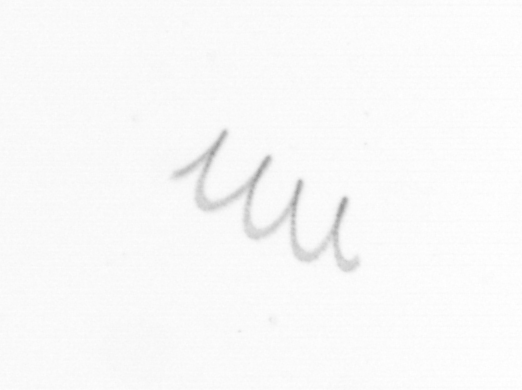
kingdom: Chromista
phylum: Ochrophyta
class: Bacillariophyceae
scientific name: Bacillariophyceae
